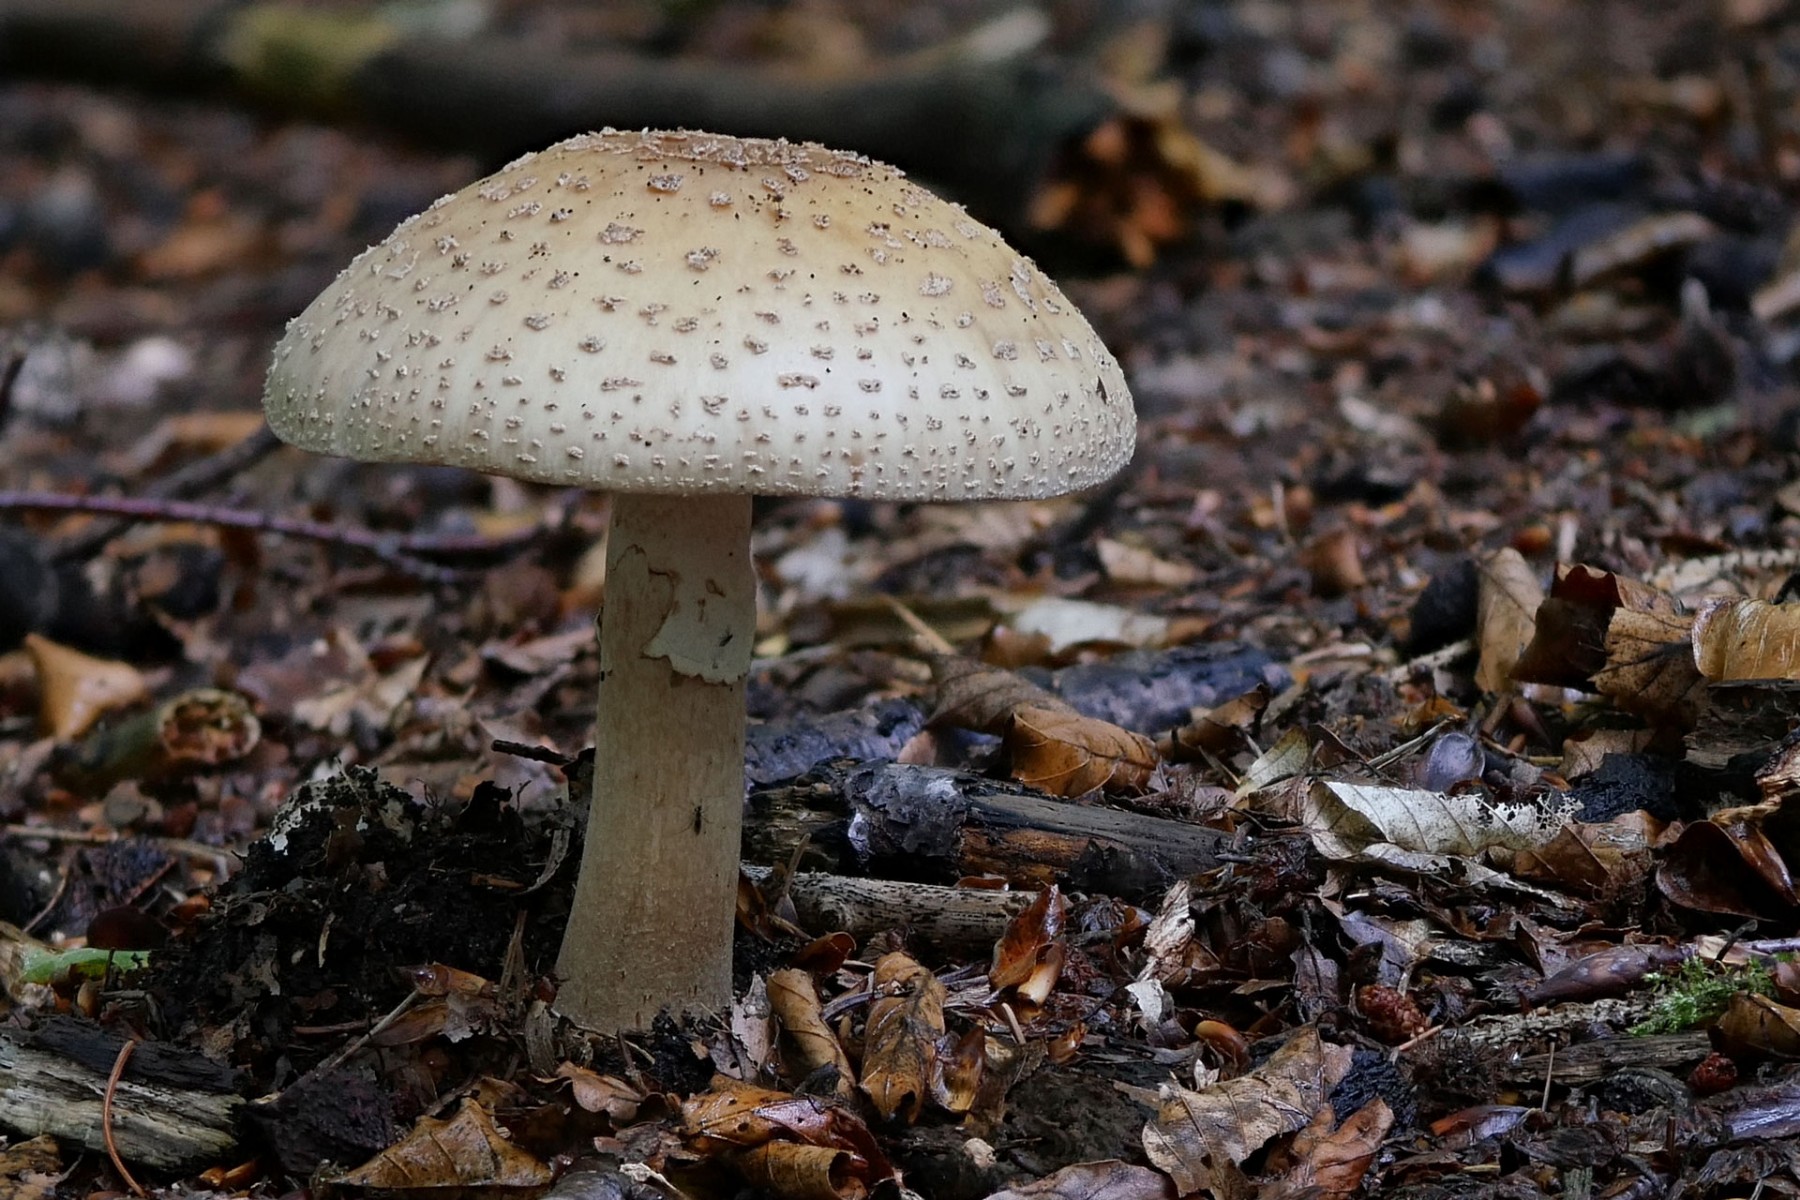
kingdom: Fungi
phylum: Basidiomycota
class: Agaricomycetes
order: Agaricales
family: Amanitaceae
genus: Amanita
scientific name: Amanita rubescens
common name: rødmende fluesvamp
